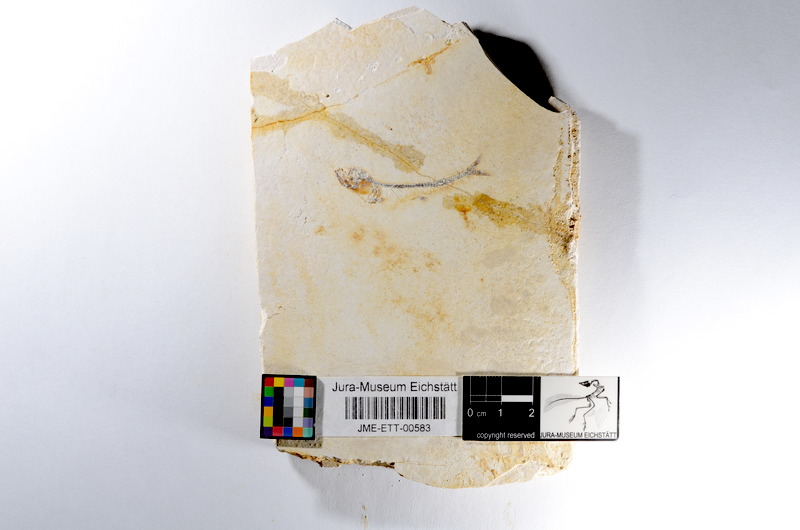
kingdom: Animalia
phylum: Chordata
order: Salmoniformes
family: Orthogonikleithridae
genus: Orthogonikleithrus
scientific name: Orthogonikleithrus hoelli
